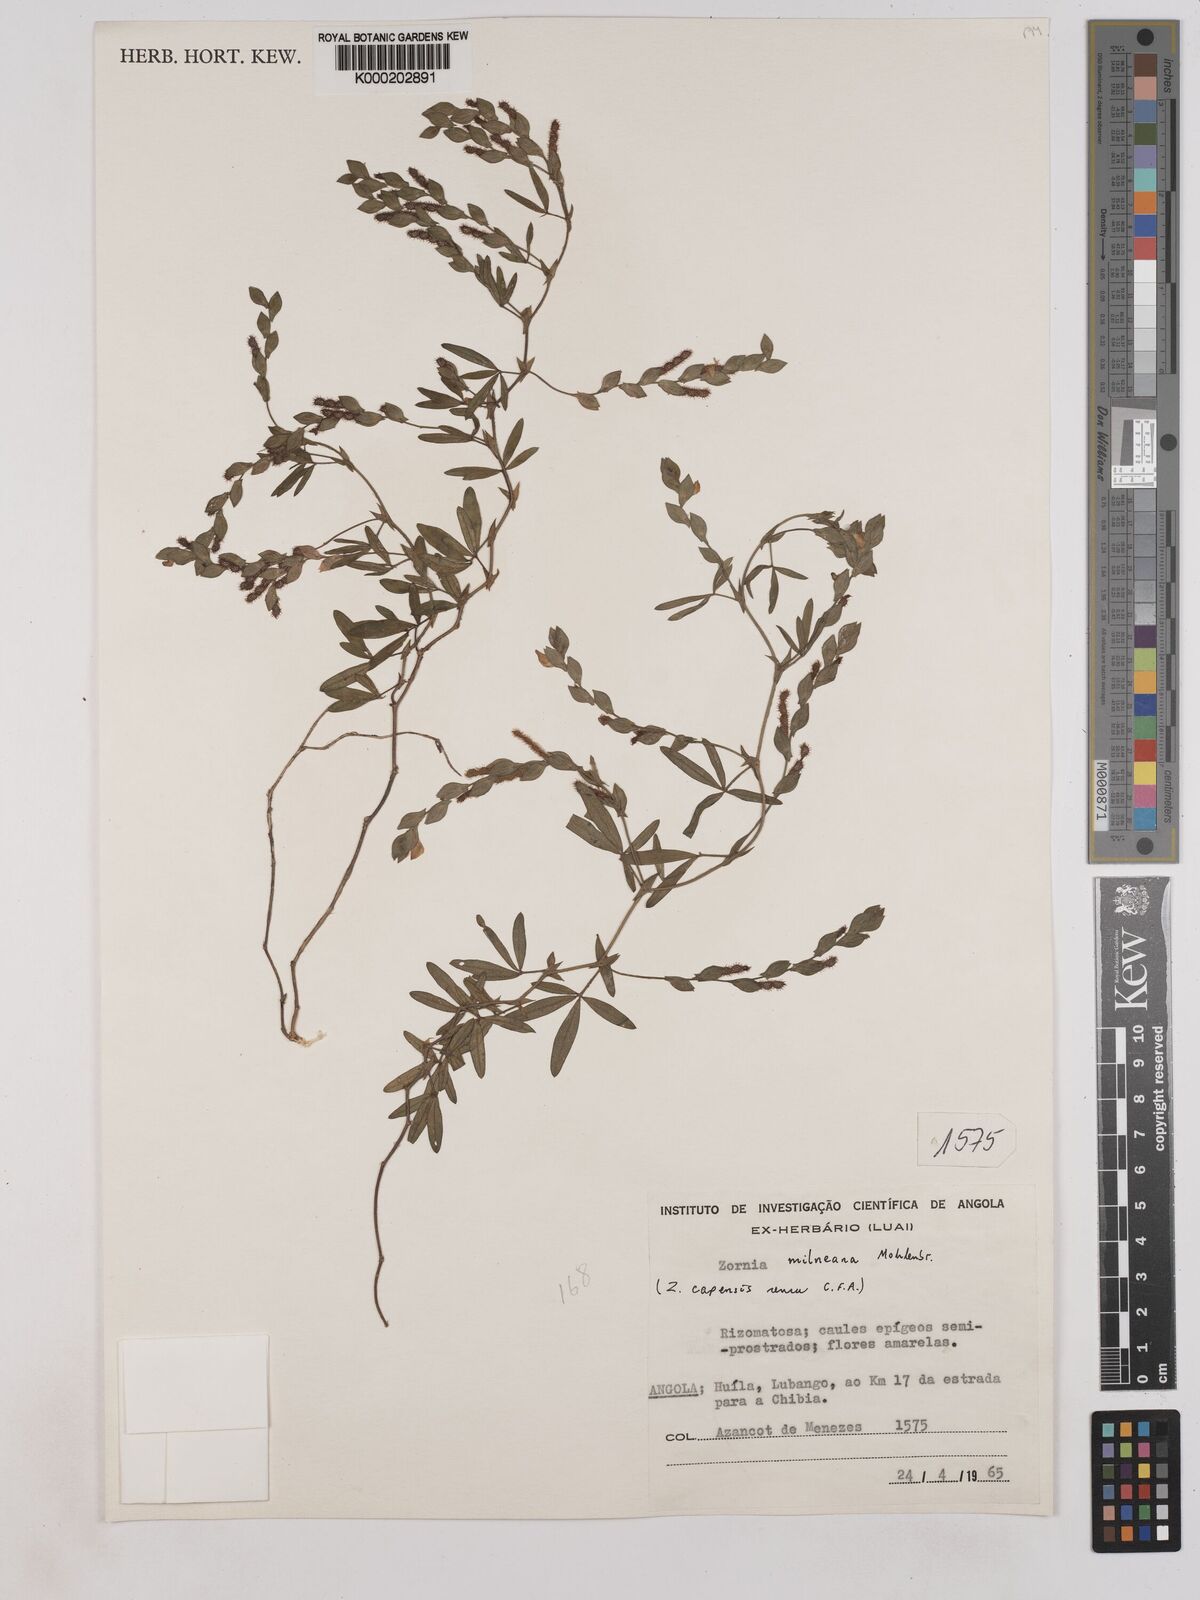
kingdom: Plantae
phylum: Tracheophyta
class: Magnoliopsida
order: Fabales
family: Fabaceae
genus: Zornia
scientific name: Zornia milneana
